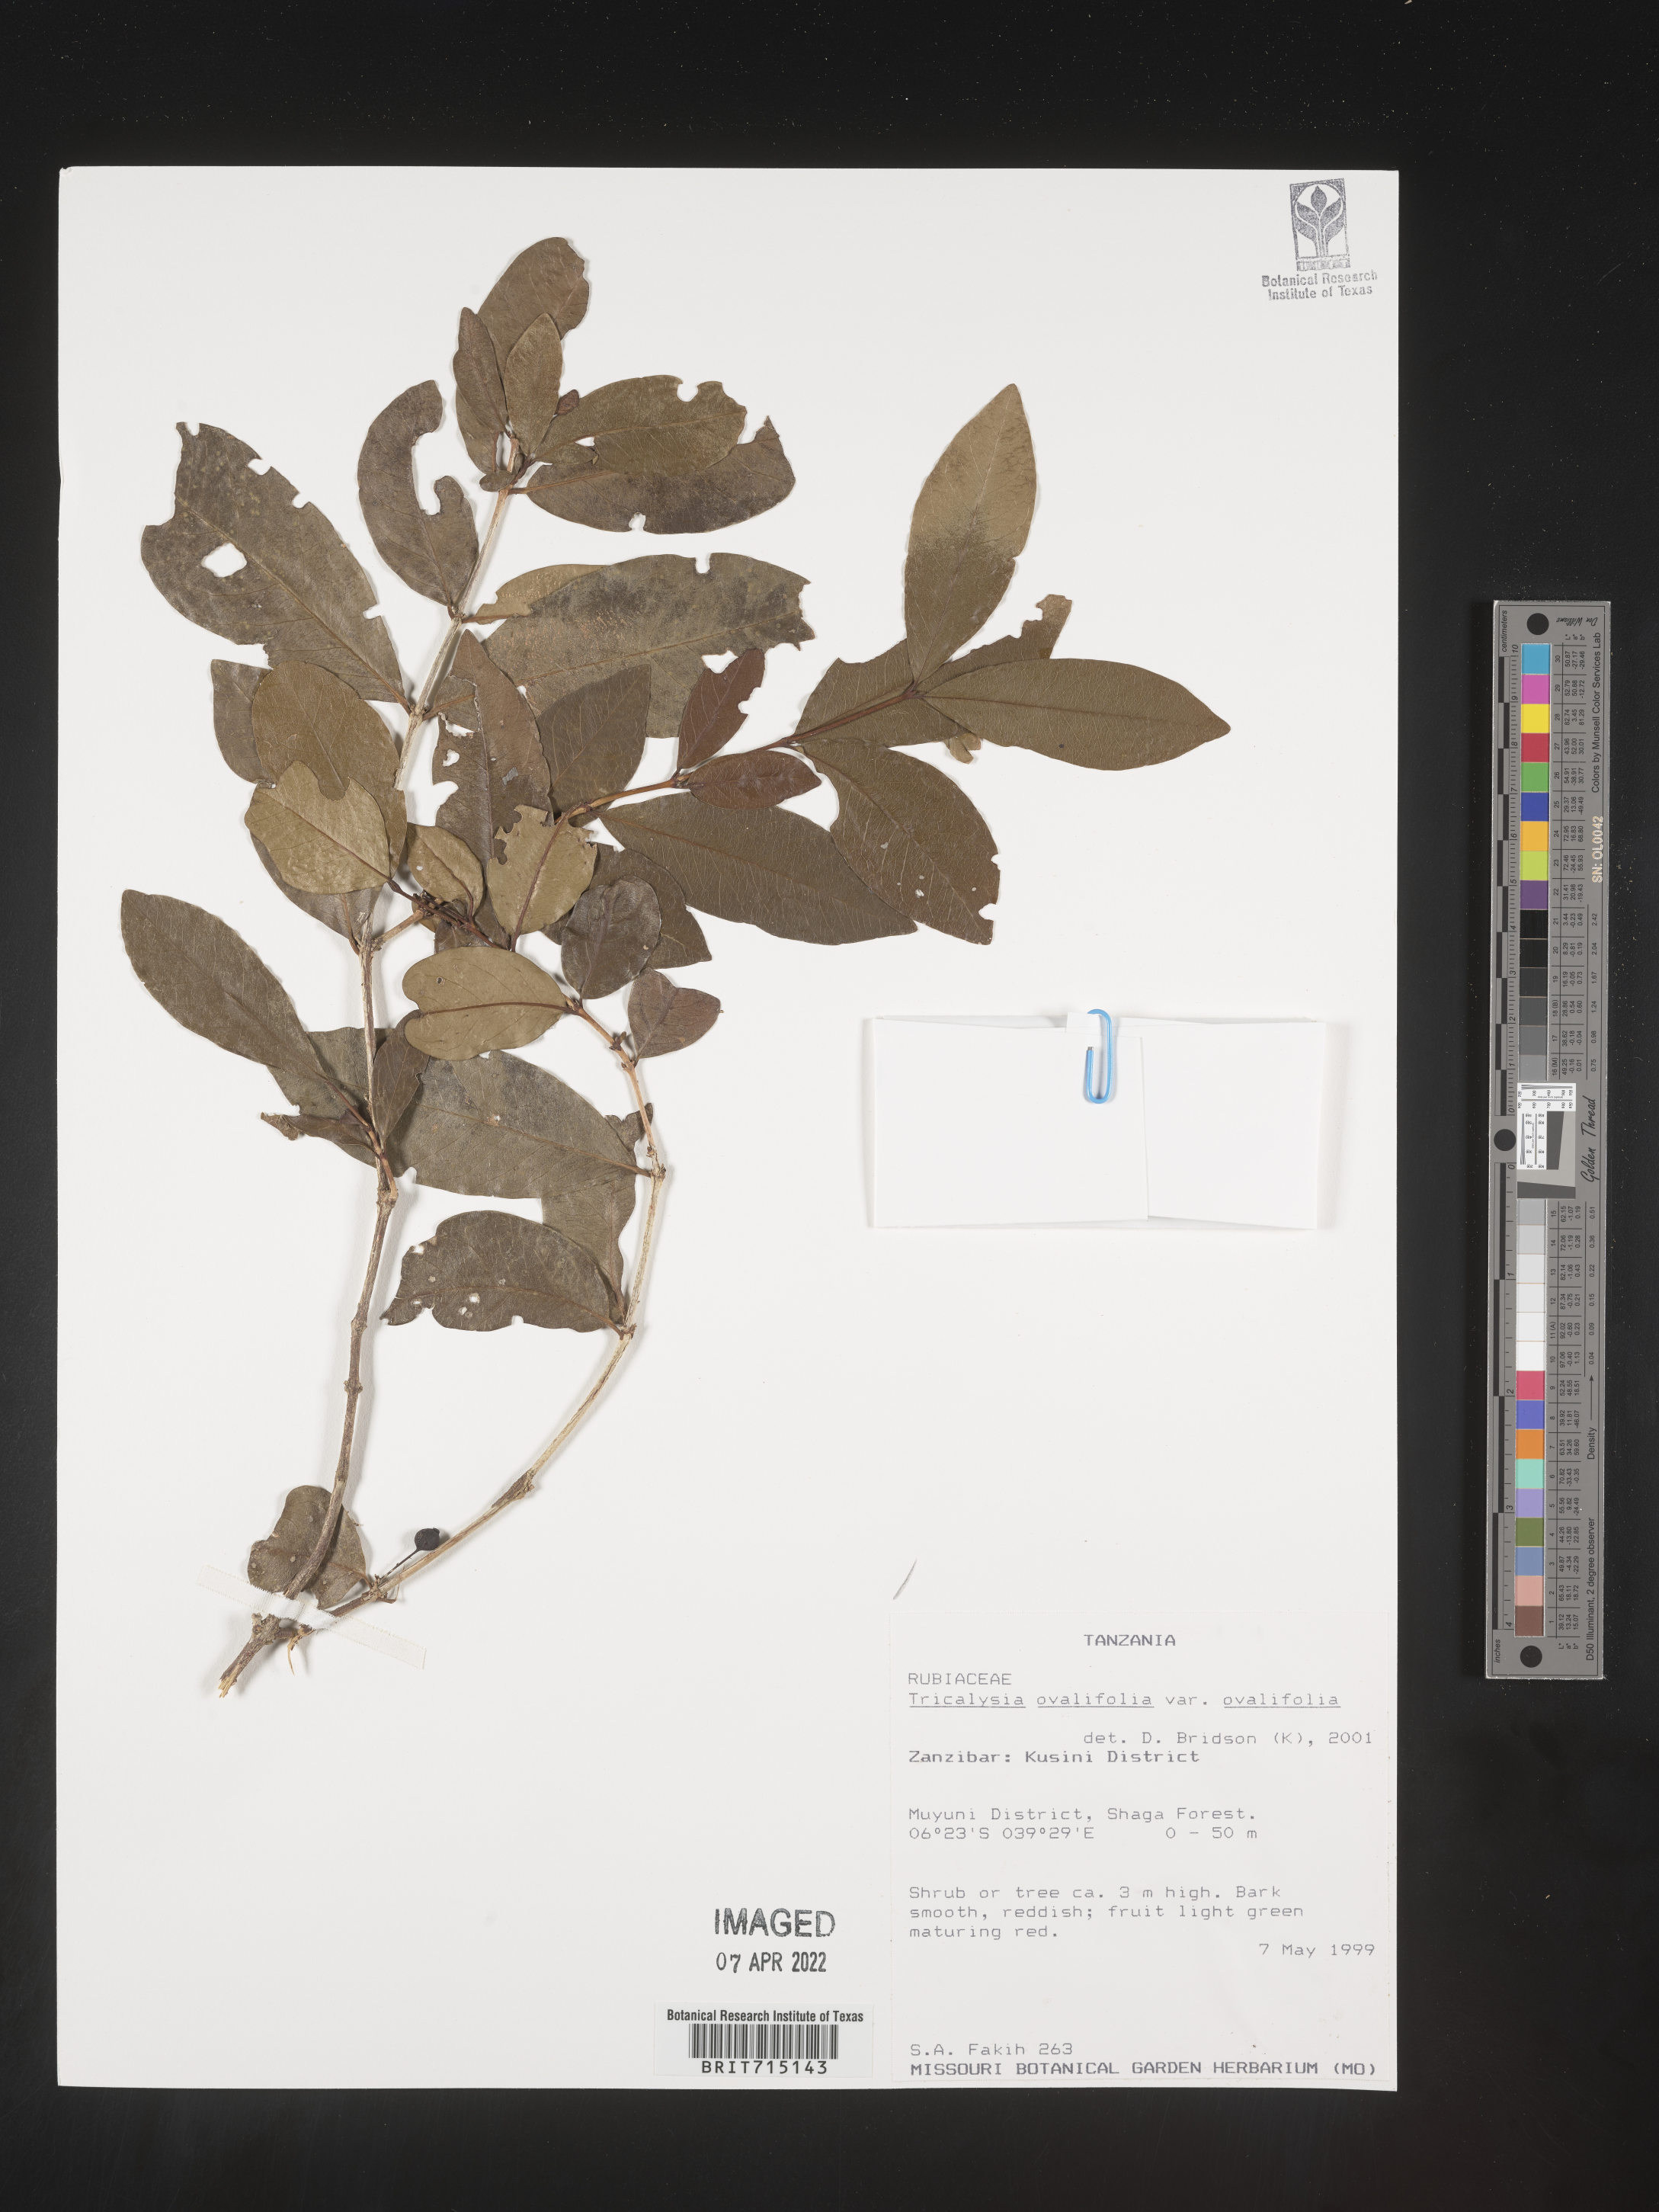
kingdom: Plantae
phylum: Tracheophyta
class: Magnoliopsida
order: Gentianales
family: Rubiaceae
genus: Tricalysia
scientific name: Tricalysia
